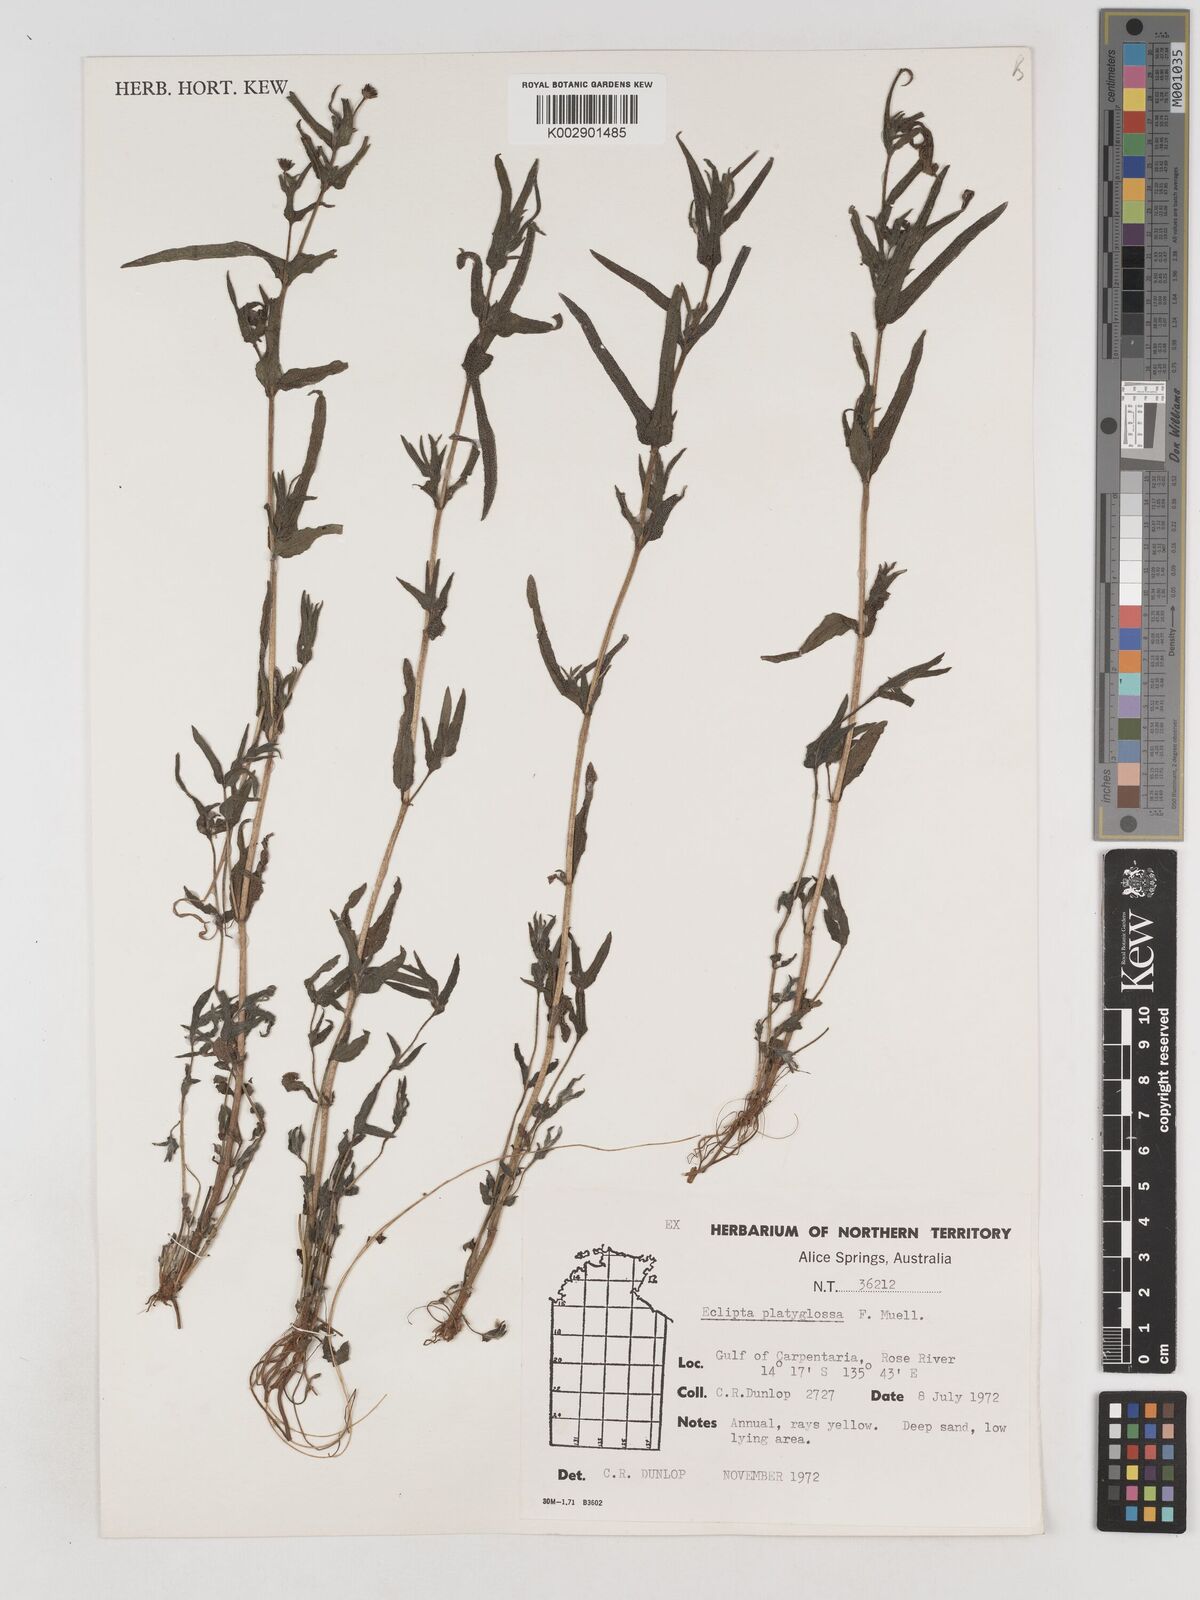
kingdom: Plantae
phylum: Tracheophyta
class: Magnoliopsida
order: Asterales
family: Asteraceae
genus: Eclipta
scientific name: Eclipta platyglossa
